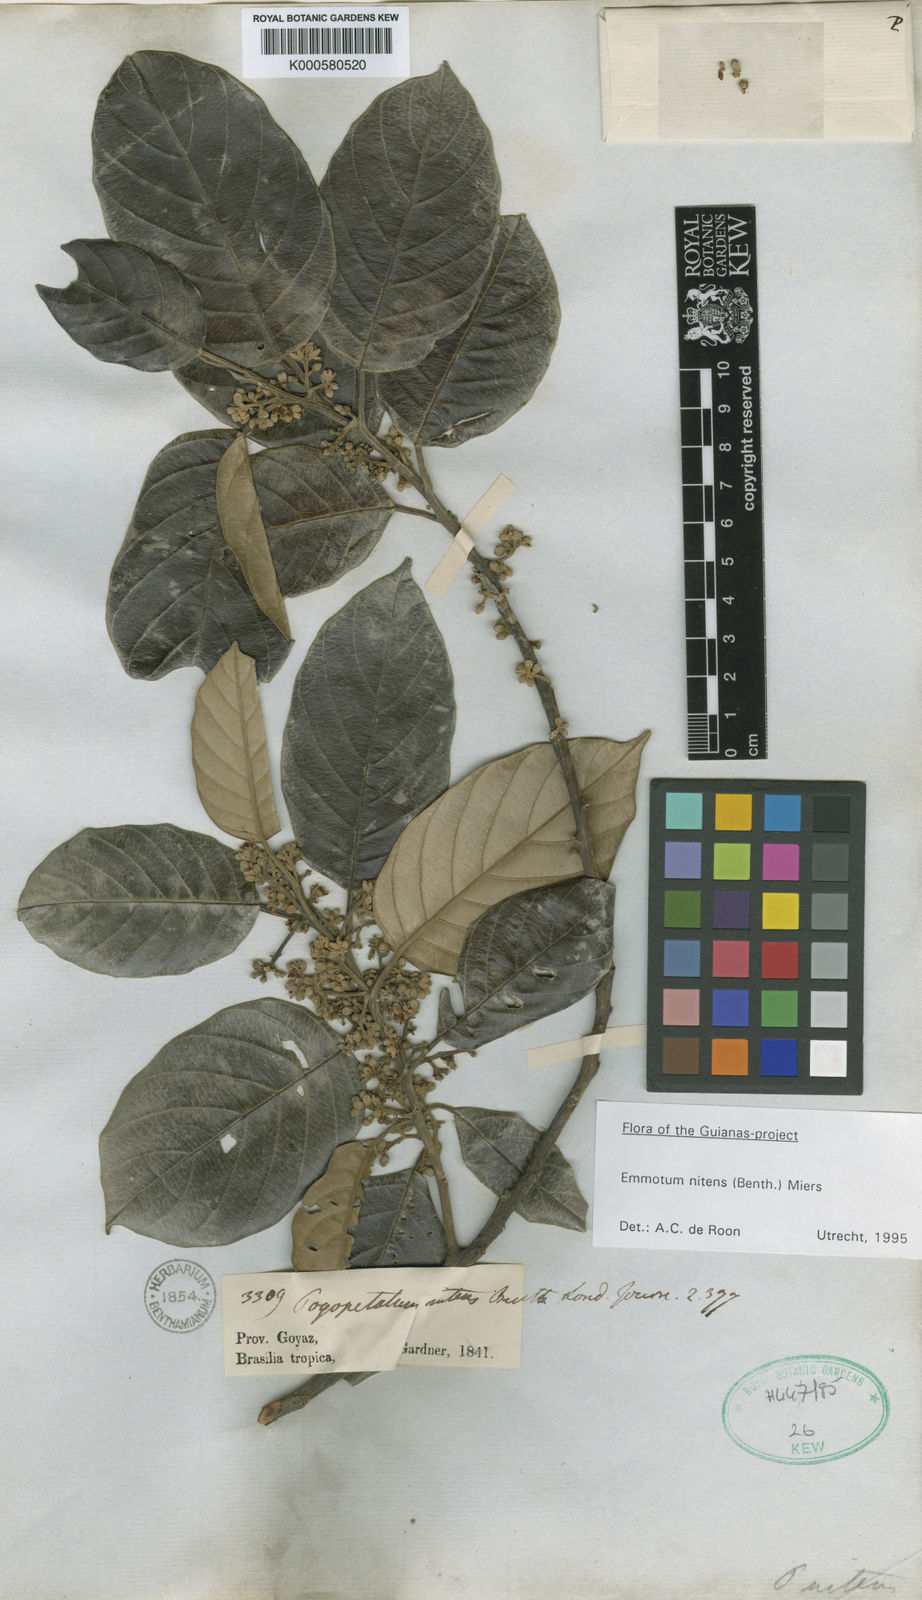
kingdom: Plantae
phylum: Tracheophyta
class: Magnoliopsida
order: Metteniusales
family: Metteniusaceae
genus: Emmotum
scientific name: Emmotum nitens
